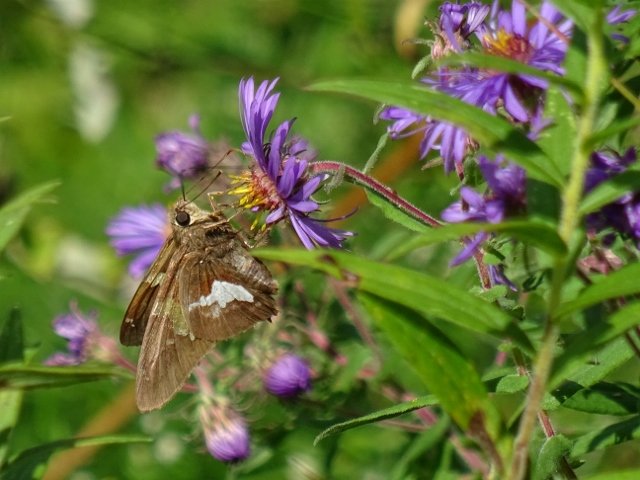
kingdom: Animalia
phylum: Arthropoda
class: Insecta
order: Lepidoptera
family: Hesperiidae
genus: Epargyreus
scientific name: Epargyreus clarus
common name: Silver-spotted Skipper
